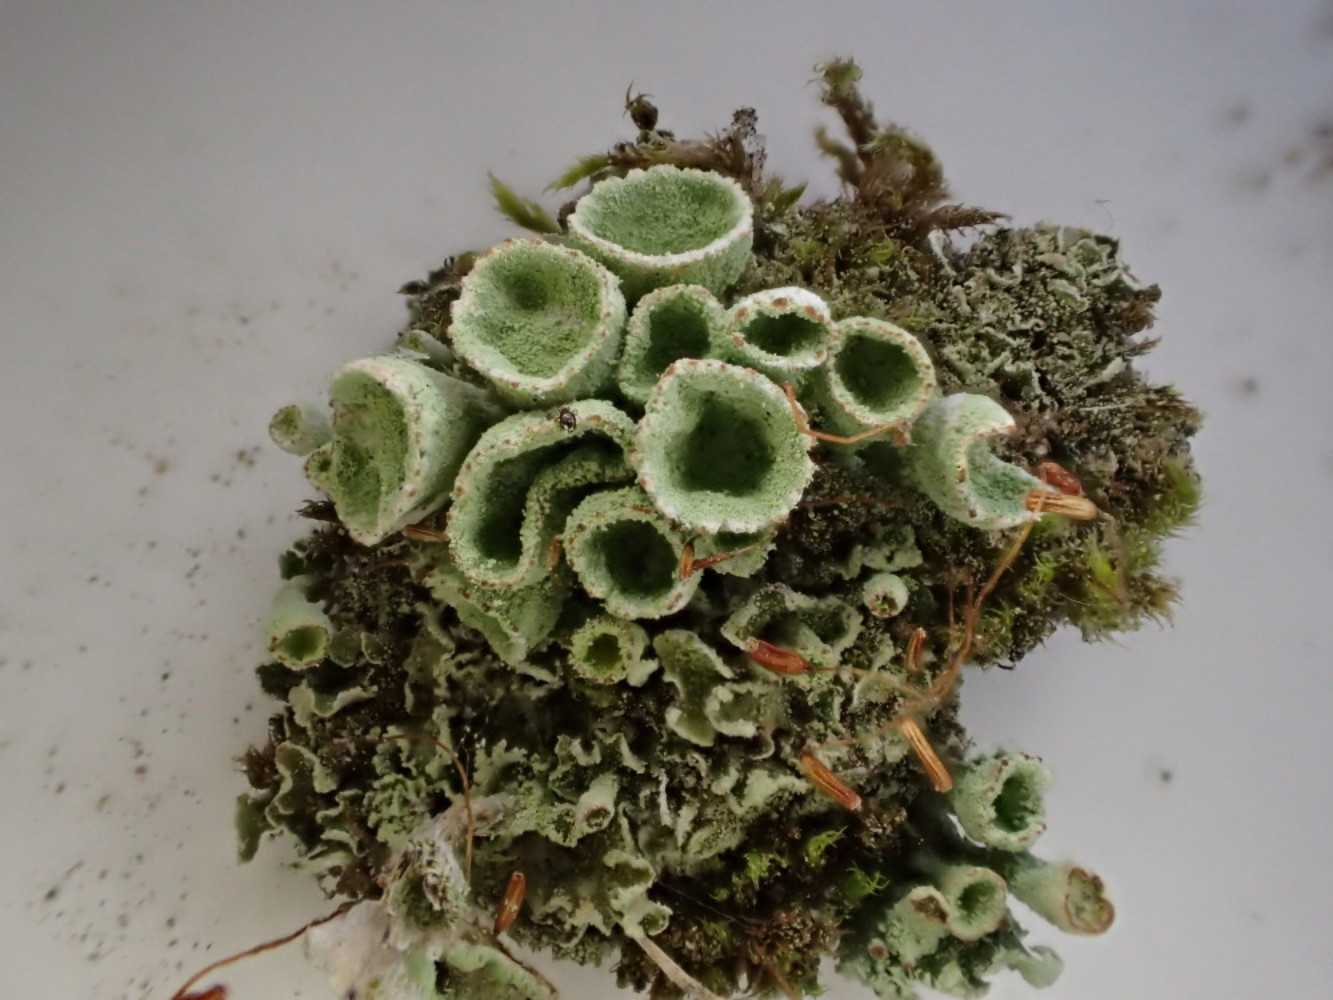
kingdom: Fungi
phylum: Ascomycota
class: Lecanoromycetes
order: Lecanorales
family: Cladoniaceae
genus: Cladonia
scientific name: Cladonia humilis
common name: lav bægerlav
